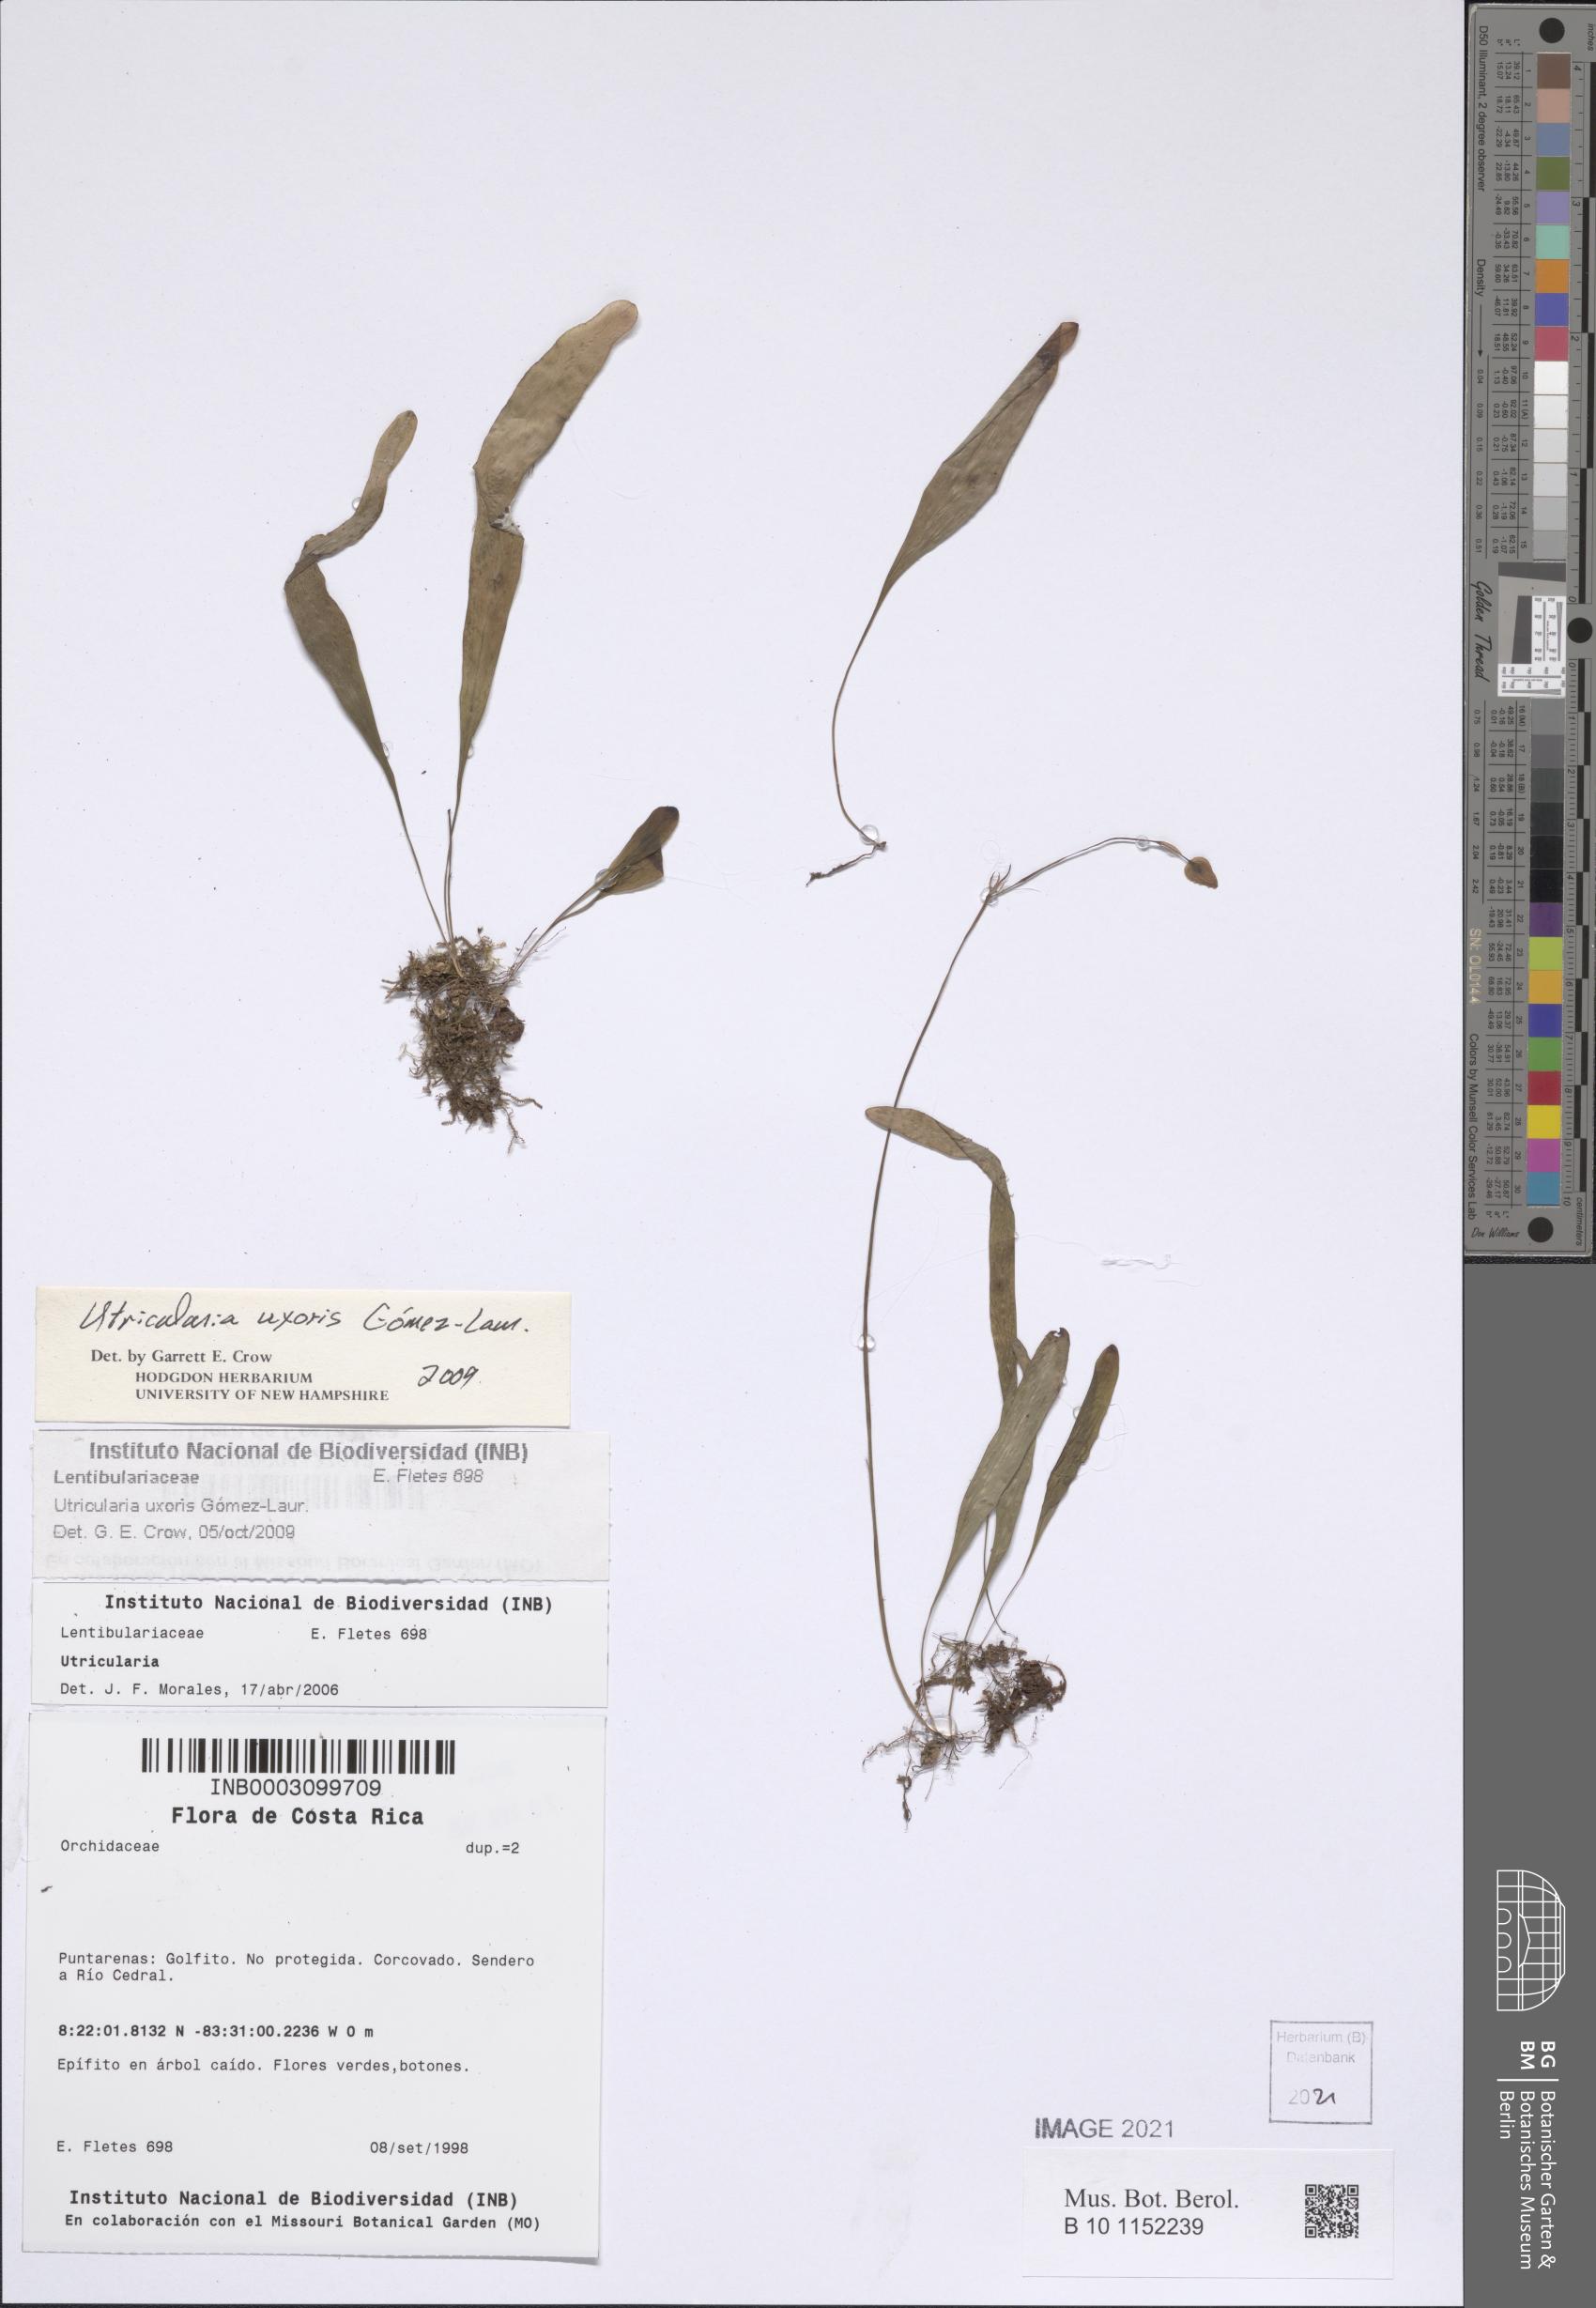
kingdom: Plantae
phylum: Tracheophyta
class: Magnoliopsida
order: Lamiales
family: Lentibulariaceae
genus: Utricularia
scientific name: Utricularia jamesoniana
